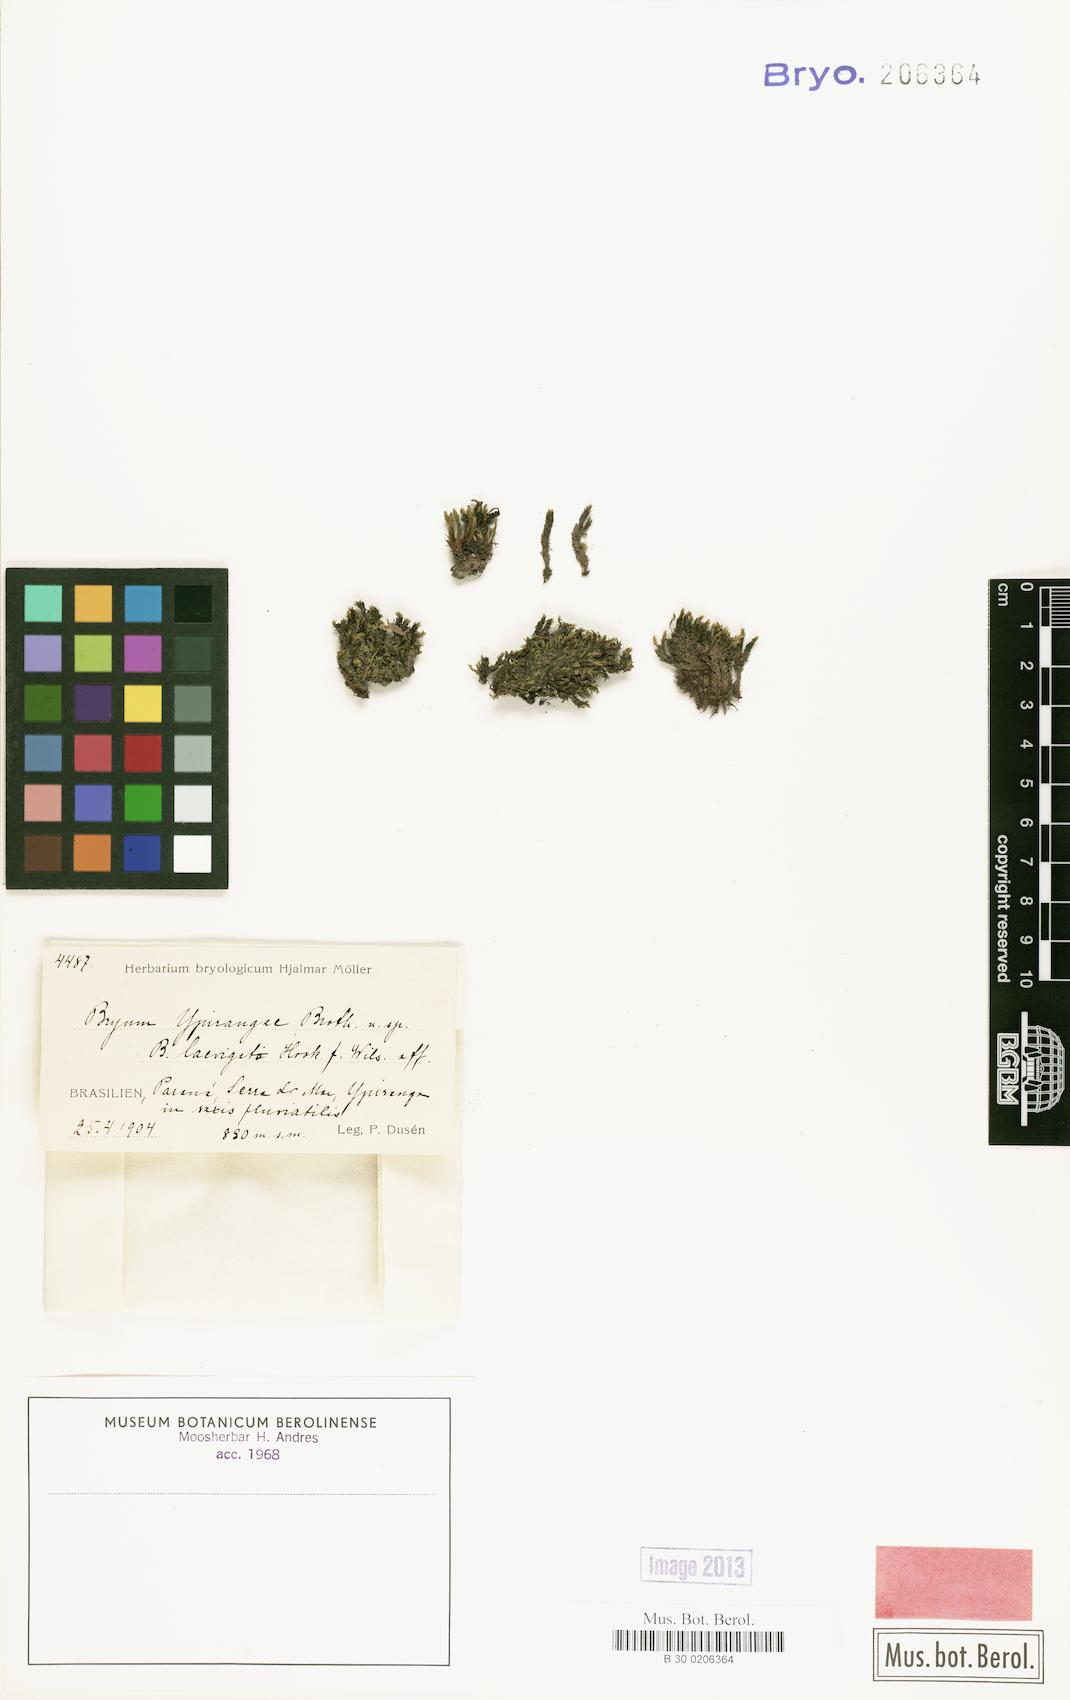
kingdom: Plantae
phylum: Bryophyta
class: Bryopsida
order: Bryales
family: Bryaceae
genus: Imbribryum
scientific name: Imbribryum laevigatum
